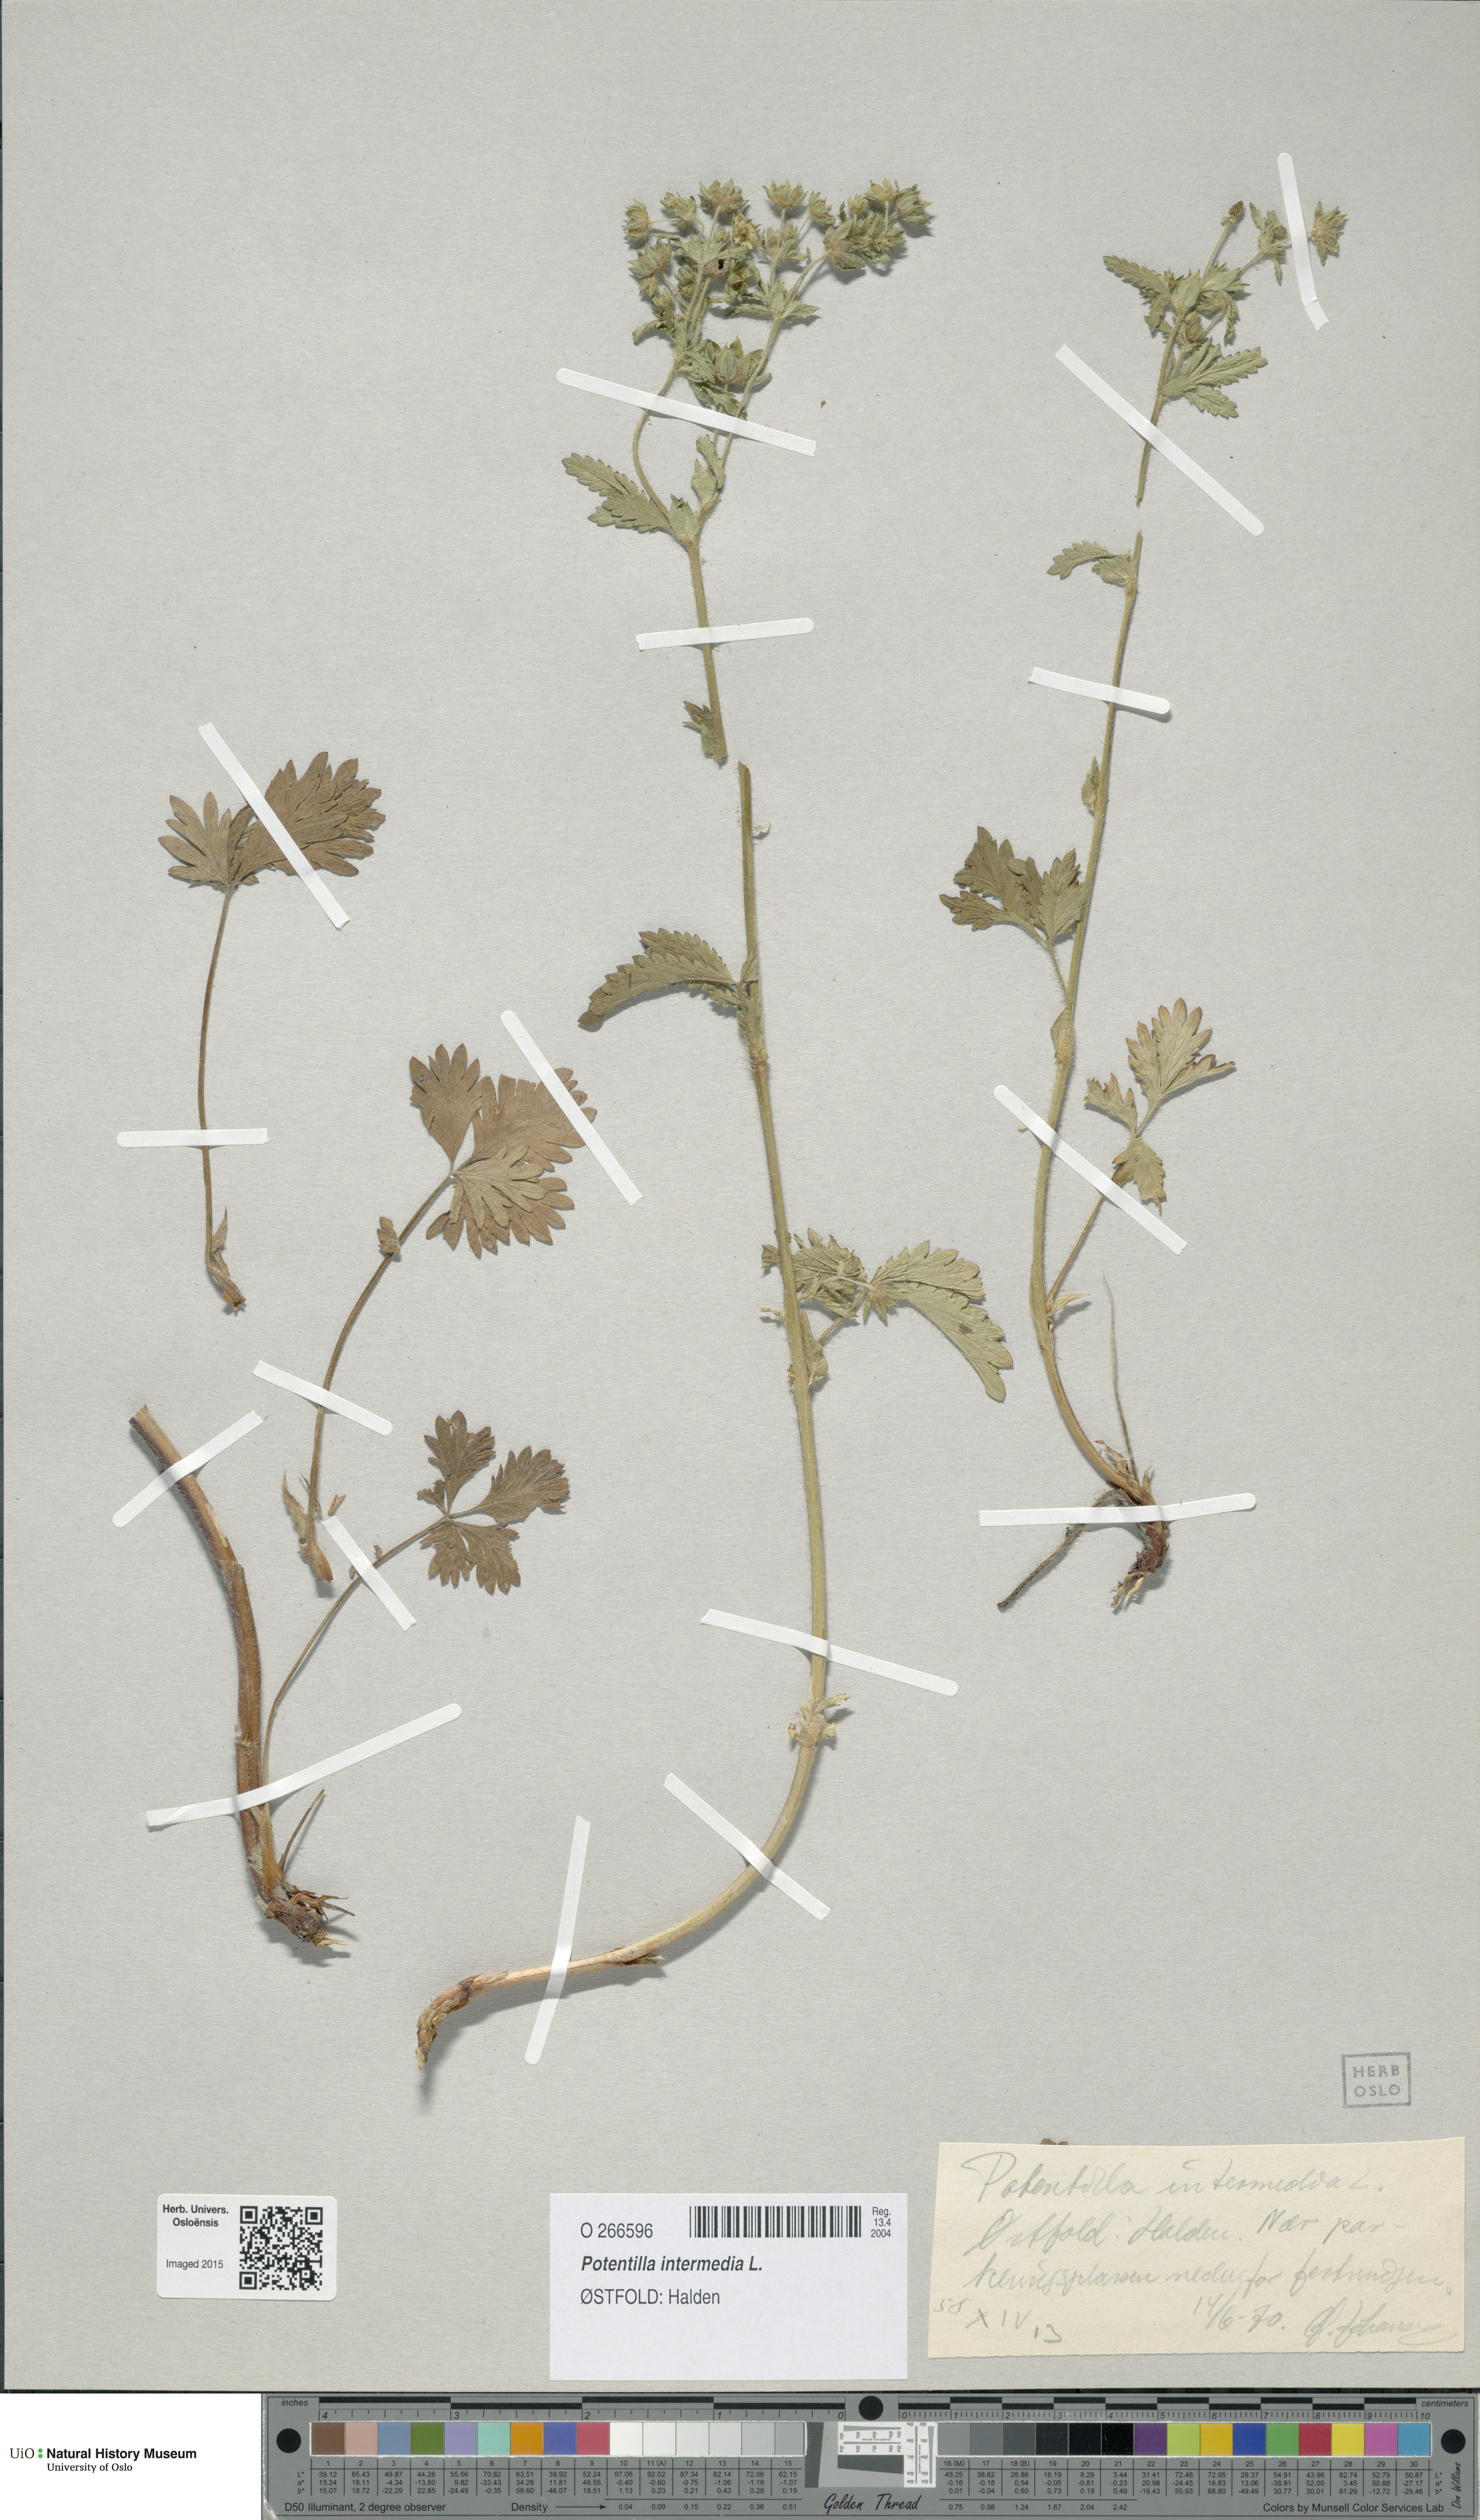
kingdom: Plantae
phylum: Tracheophyta
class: Magnoliopsida
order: Rosales
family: Rosaceae
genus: Potentilla
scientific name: Potentilla intermedia
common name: Downy cinquefoil
